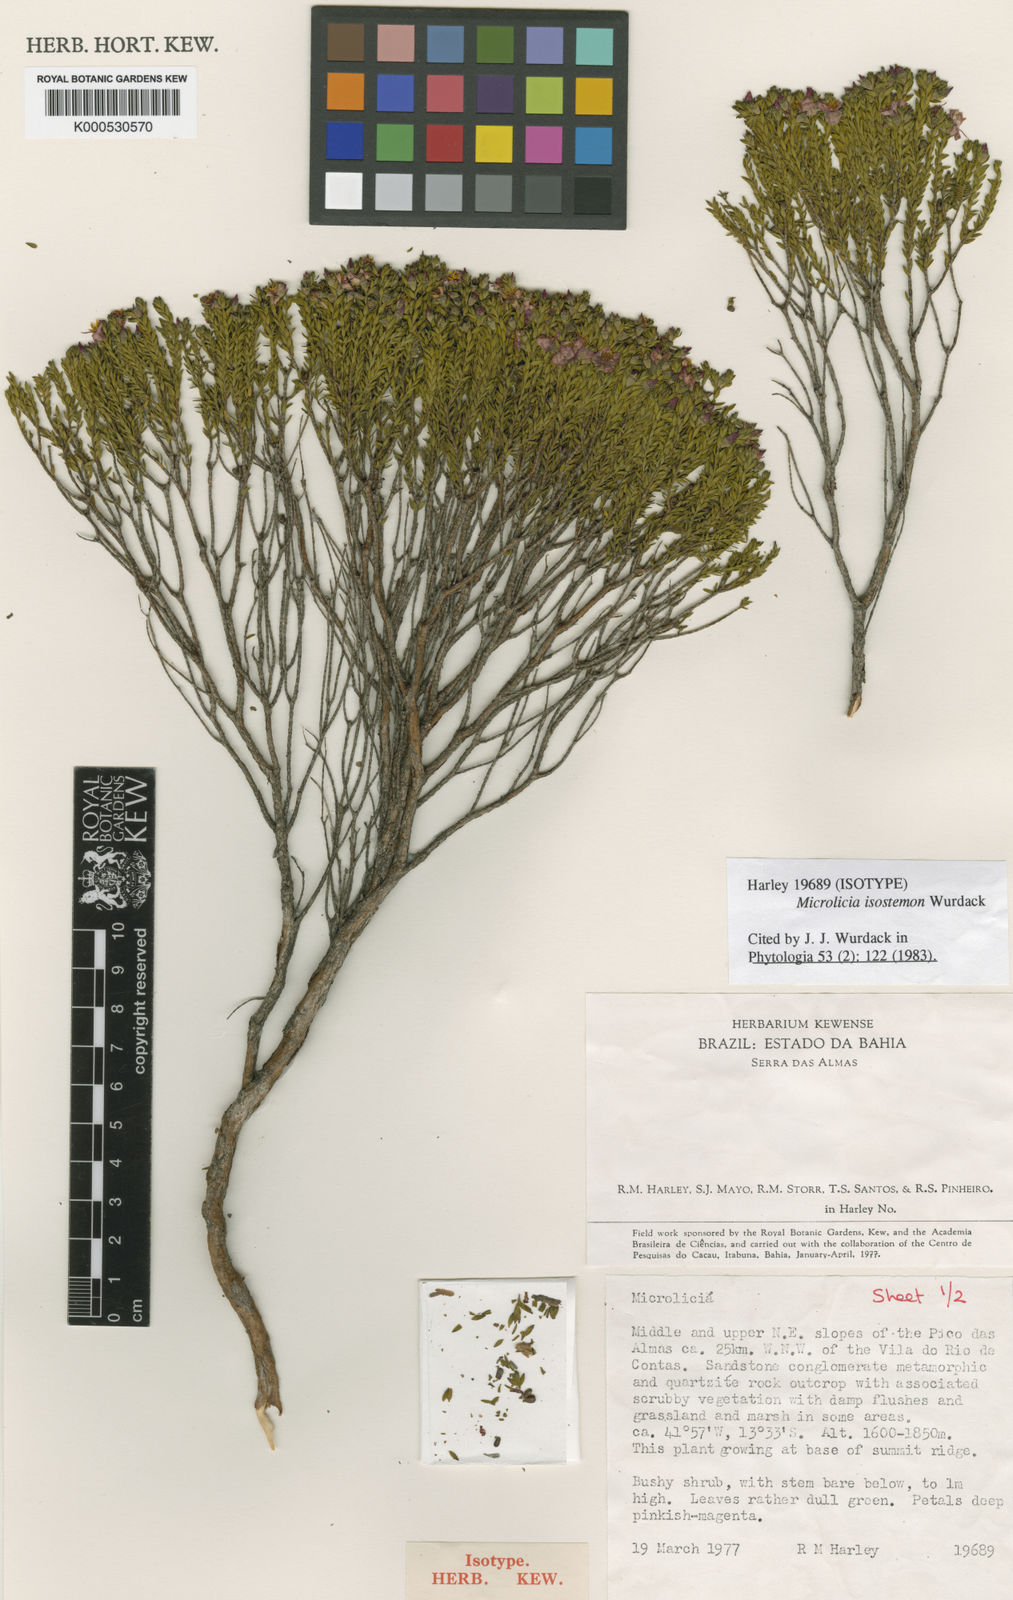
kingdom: Plantae
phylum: Tracheophyta
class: Magnoliopsida
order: Myrtales
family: Melastomataceae
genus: Microlicia
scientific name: Microlicia isostemon
